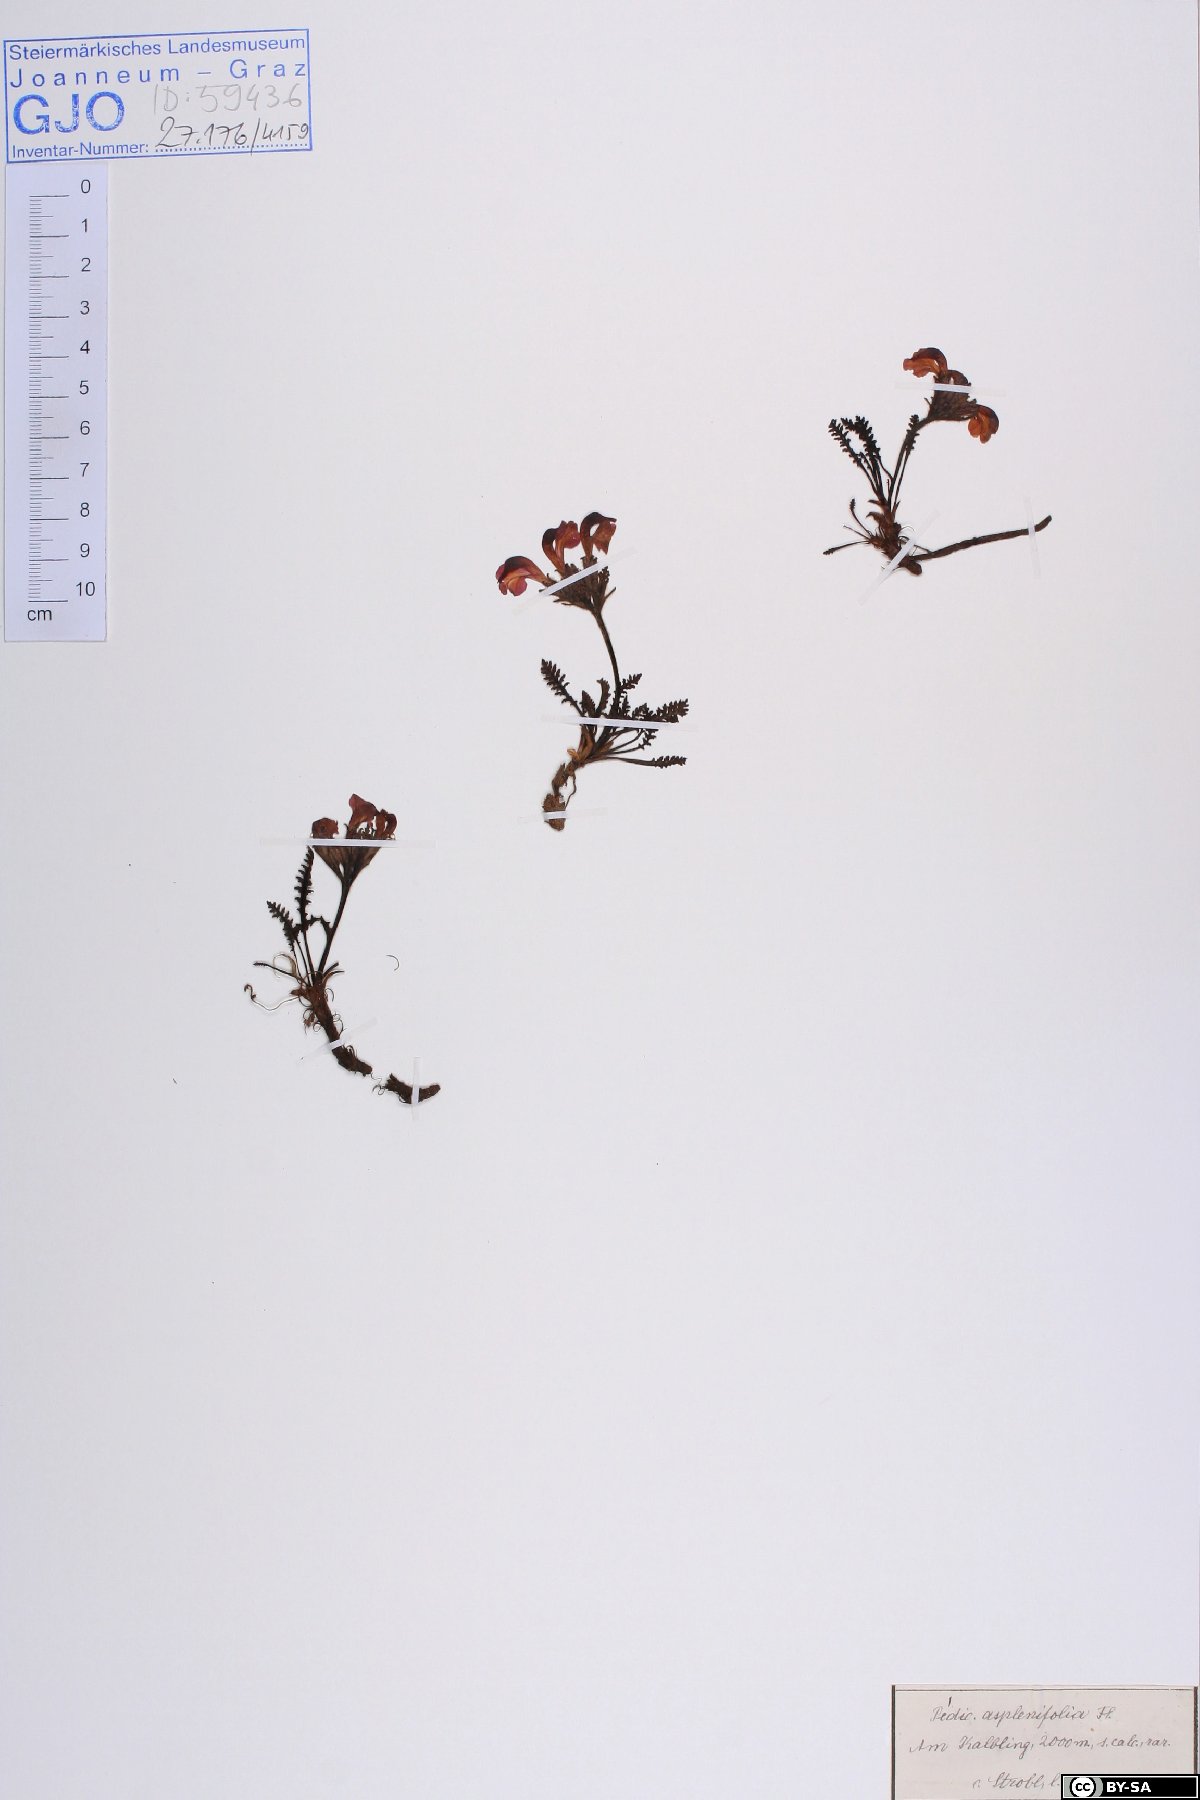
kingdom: Plantae
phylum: Tracheophyta
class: Magnoliopsida
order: Lamiales
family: Orobanchaceae
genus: Pedicularis
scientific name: Pedicularis asplenifolia
